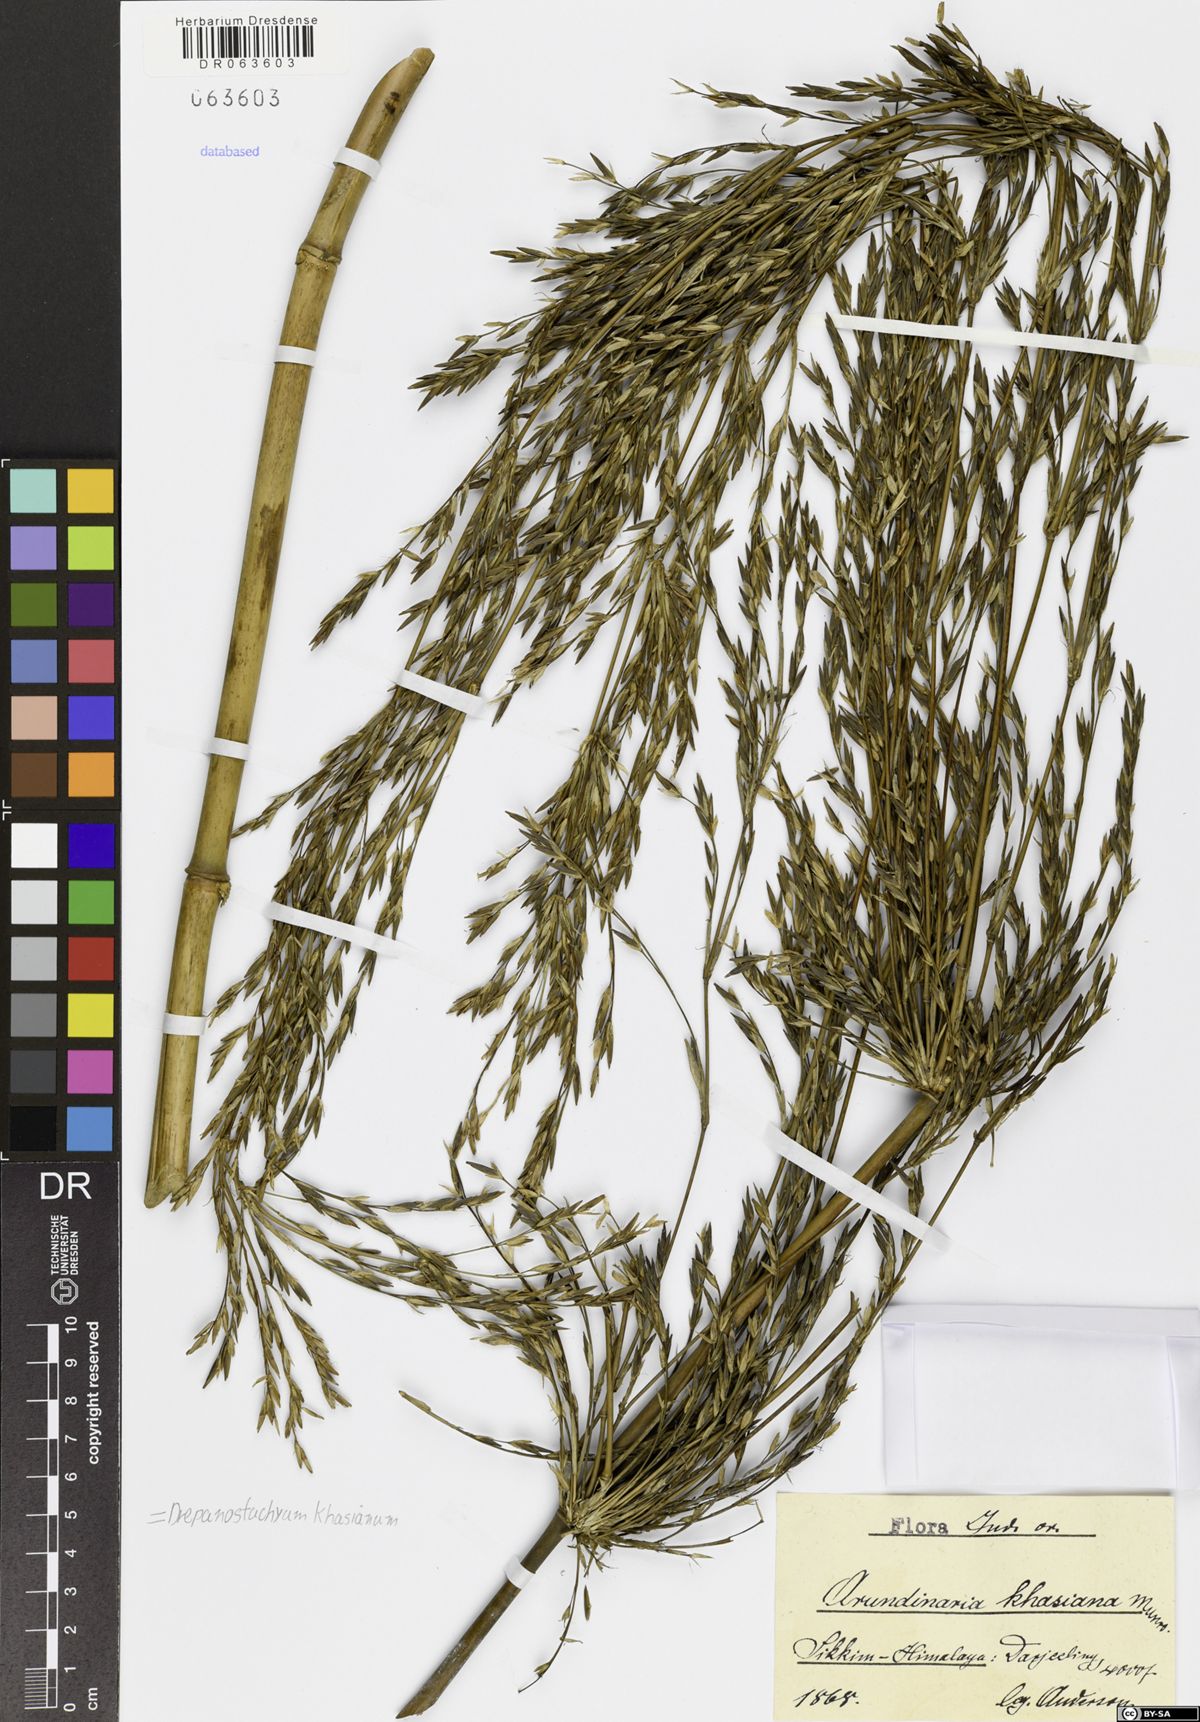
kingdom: Plantae
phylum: Tracheophyta
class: Liliopsida
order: Poales
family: Poaceae
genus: Drepanostachyum
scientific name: Drepanostachyum khasianum
